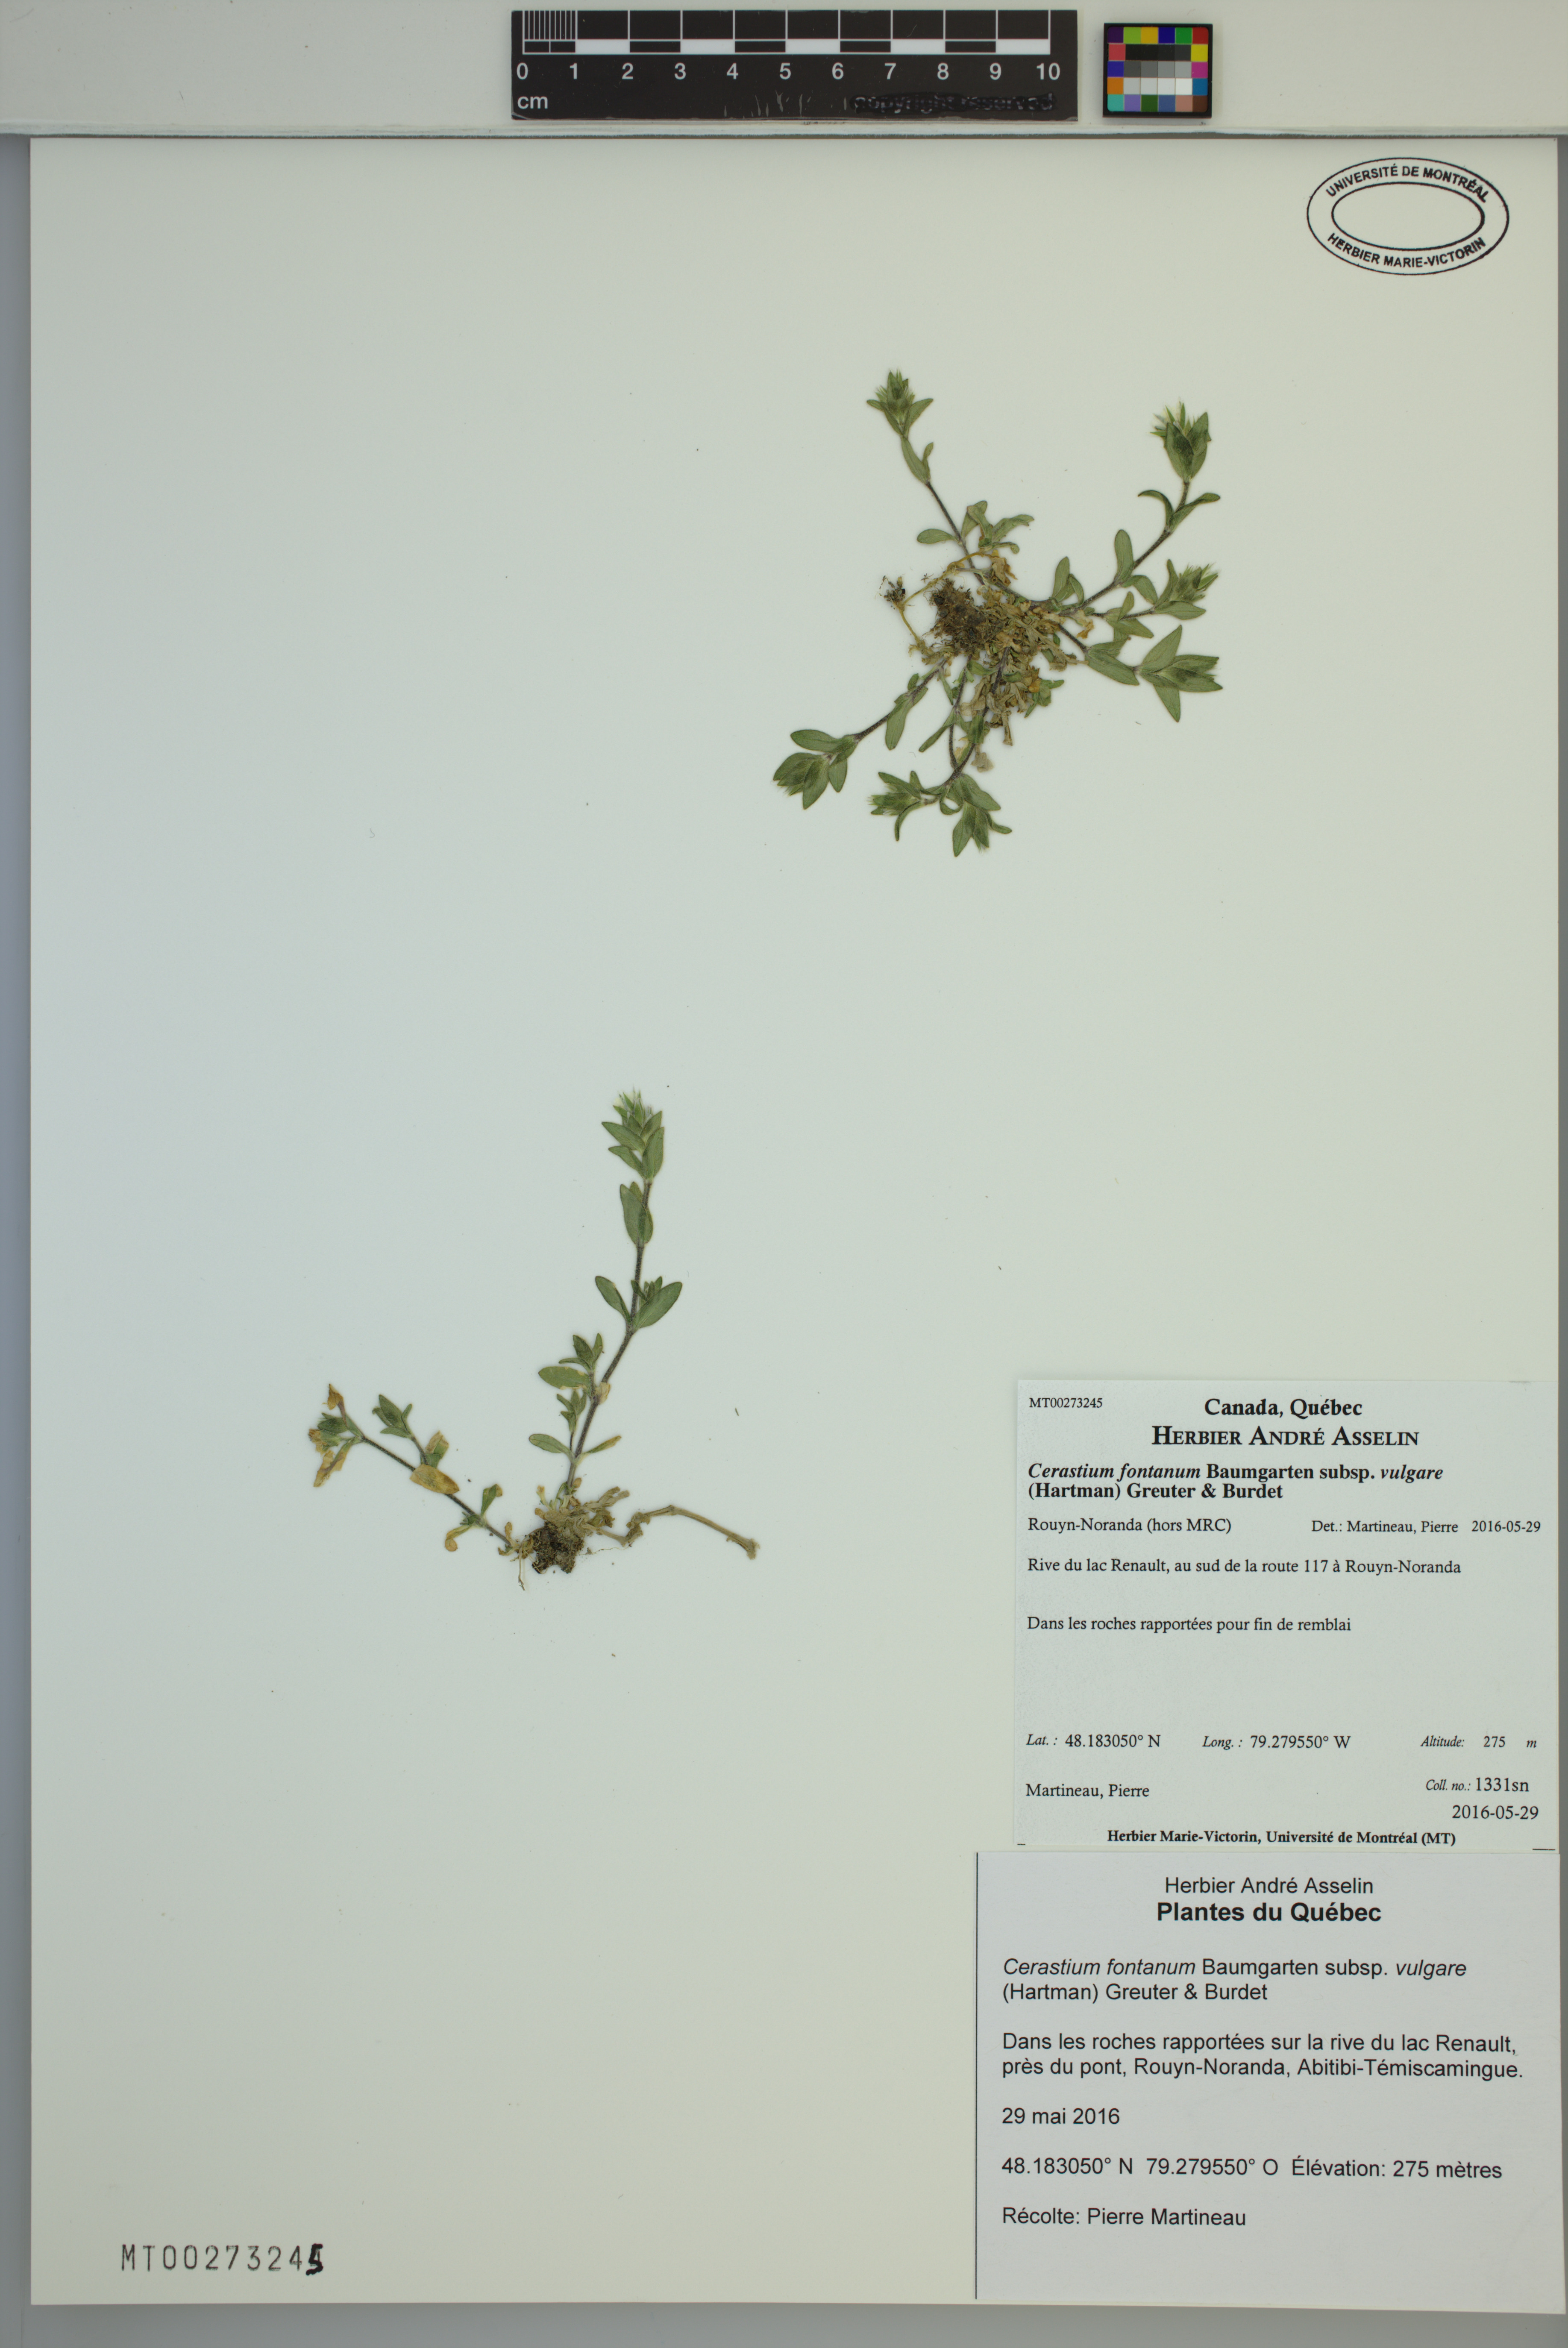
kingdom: Plantae
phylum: Tracheophyta
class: Magnoliopsida
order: Caryophyllales
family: Caryophyllaceae
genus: Cerastium
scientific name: Cerastium holosteoides
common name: Big chickweed
